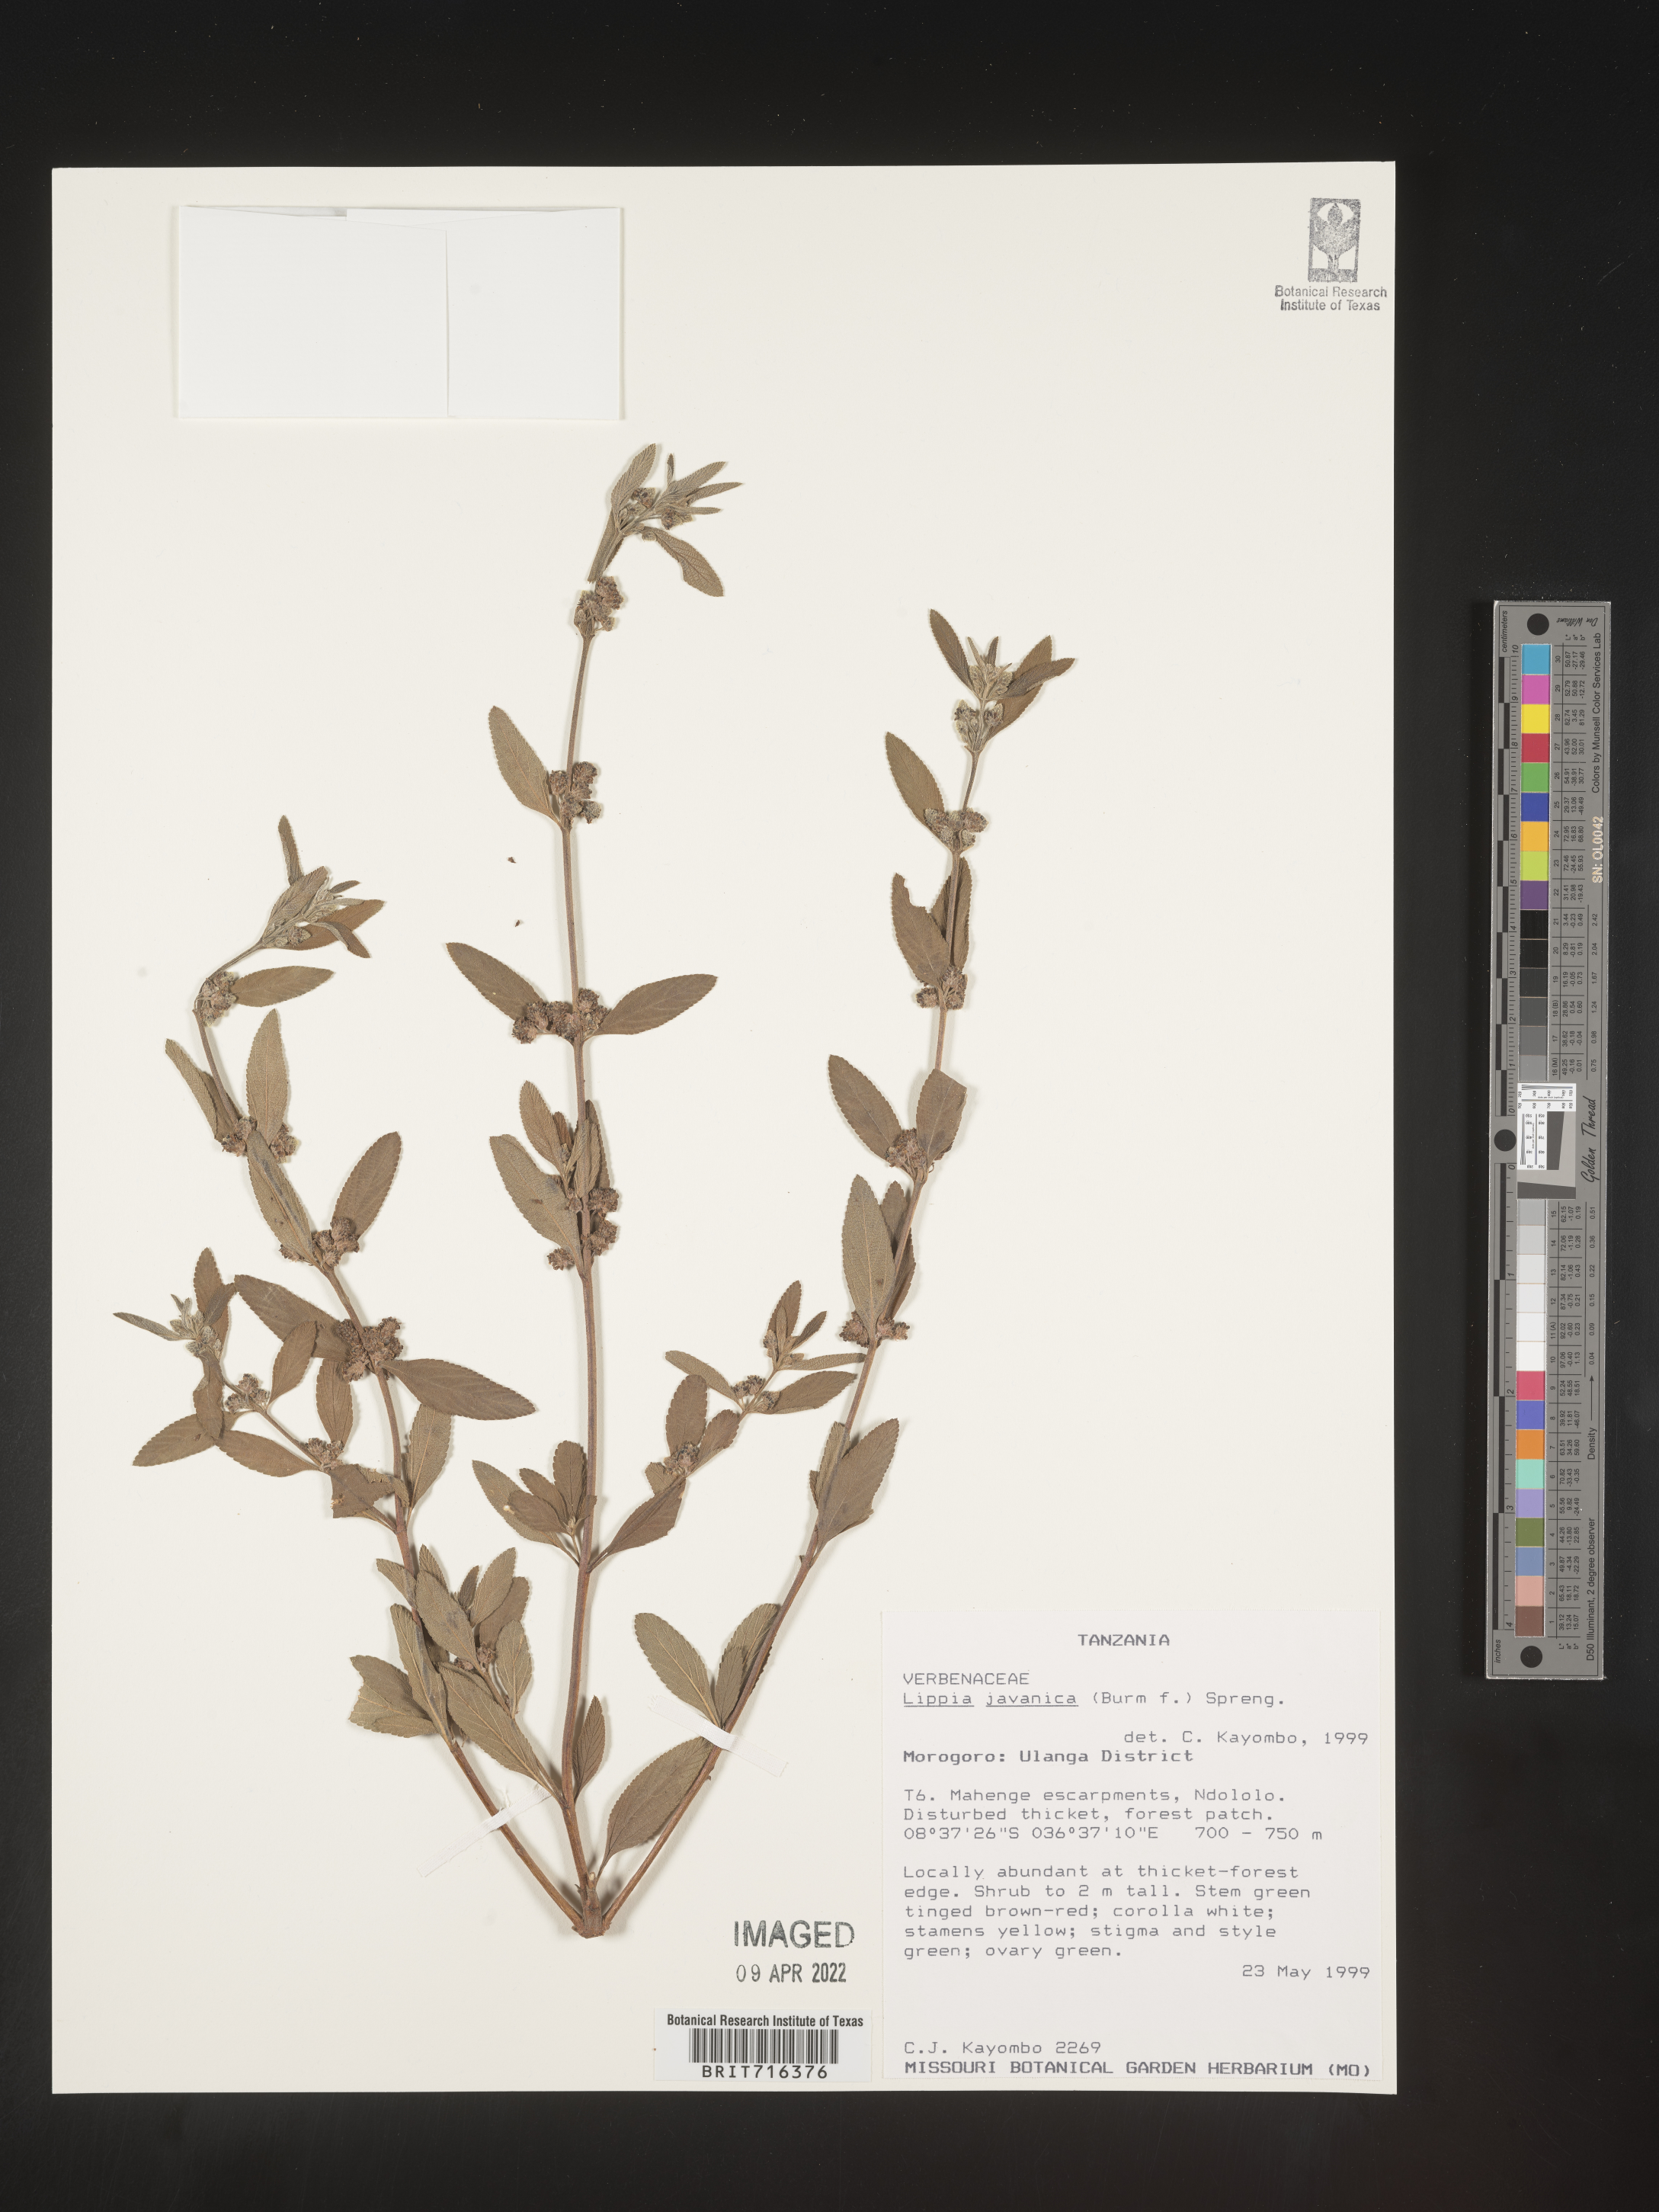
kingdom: Plantae
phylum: Tracheophyta
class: Magnoliopsida
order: Lamiales
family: Verbenaceae
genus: Lippia
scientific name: Lippia
